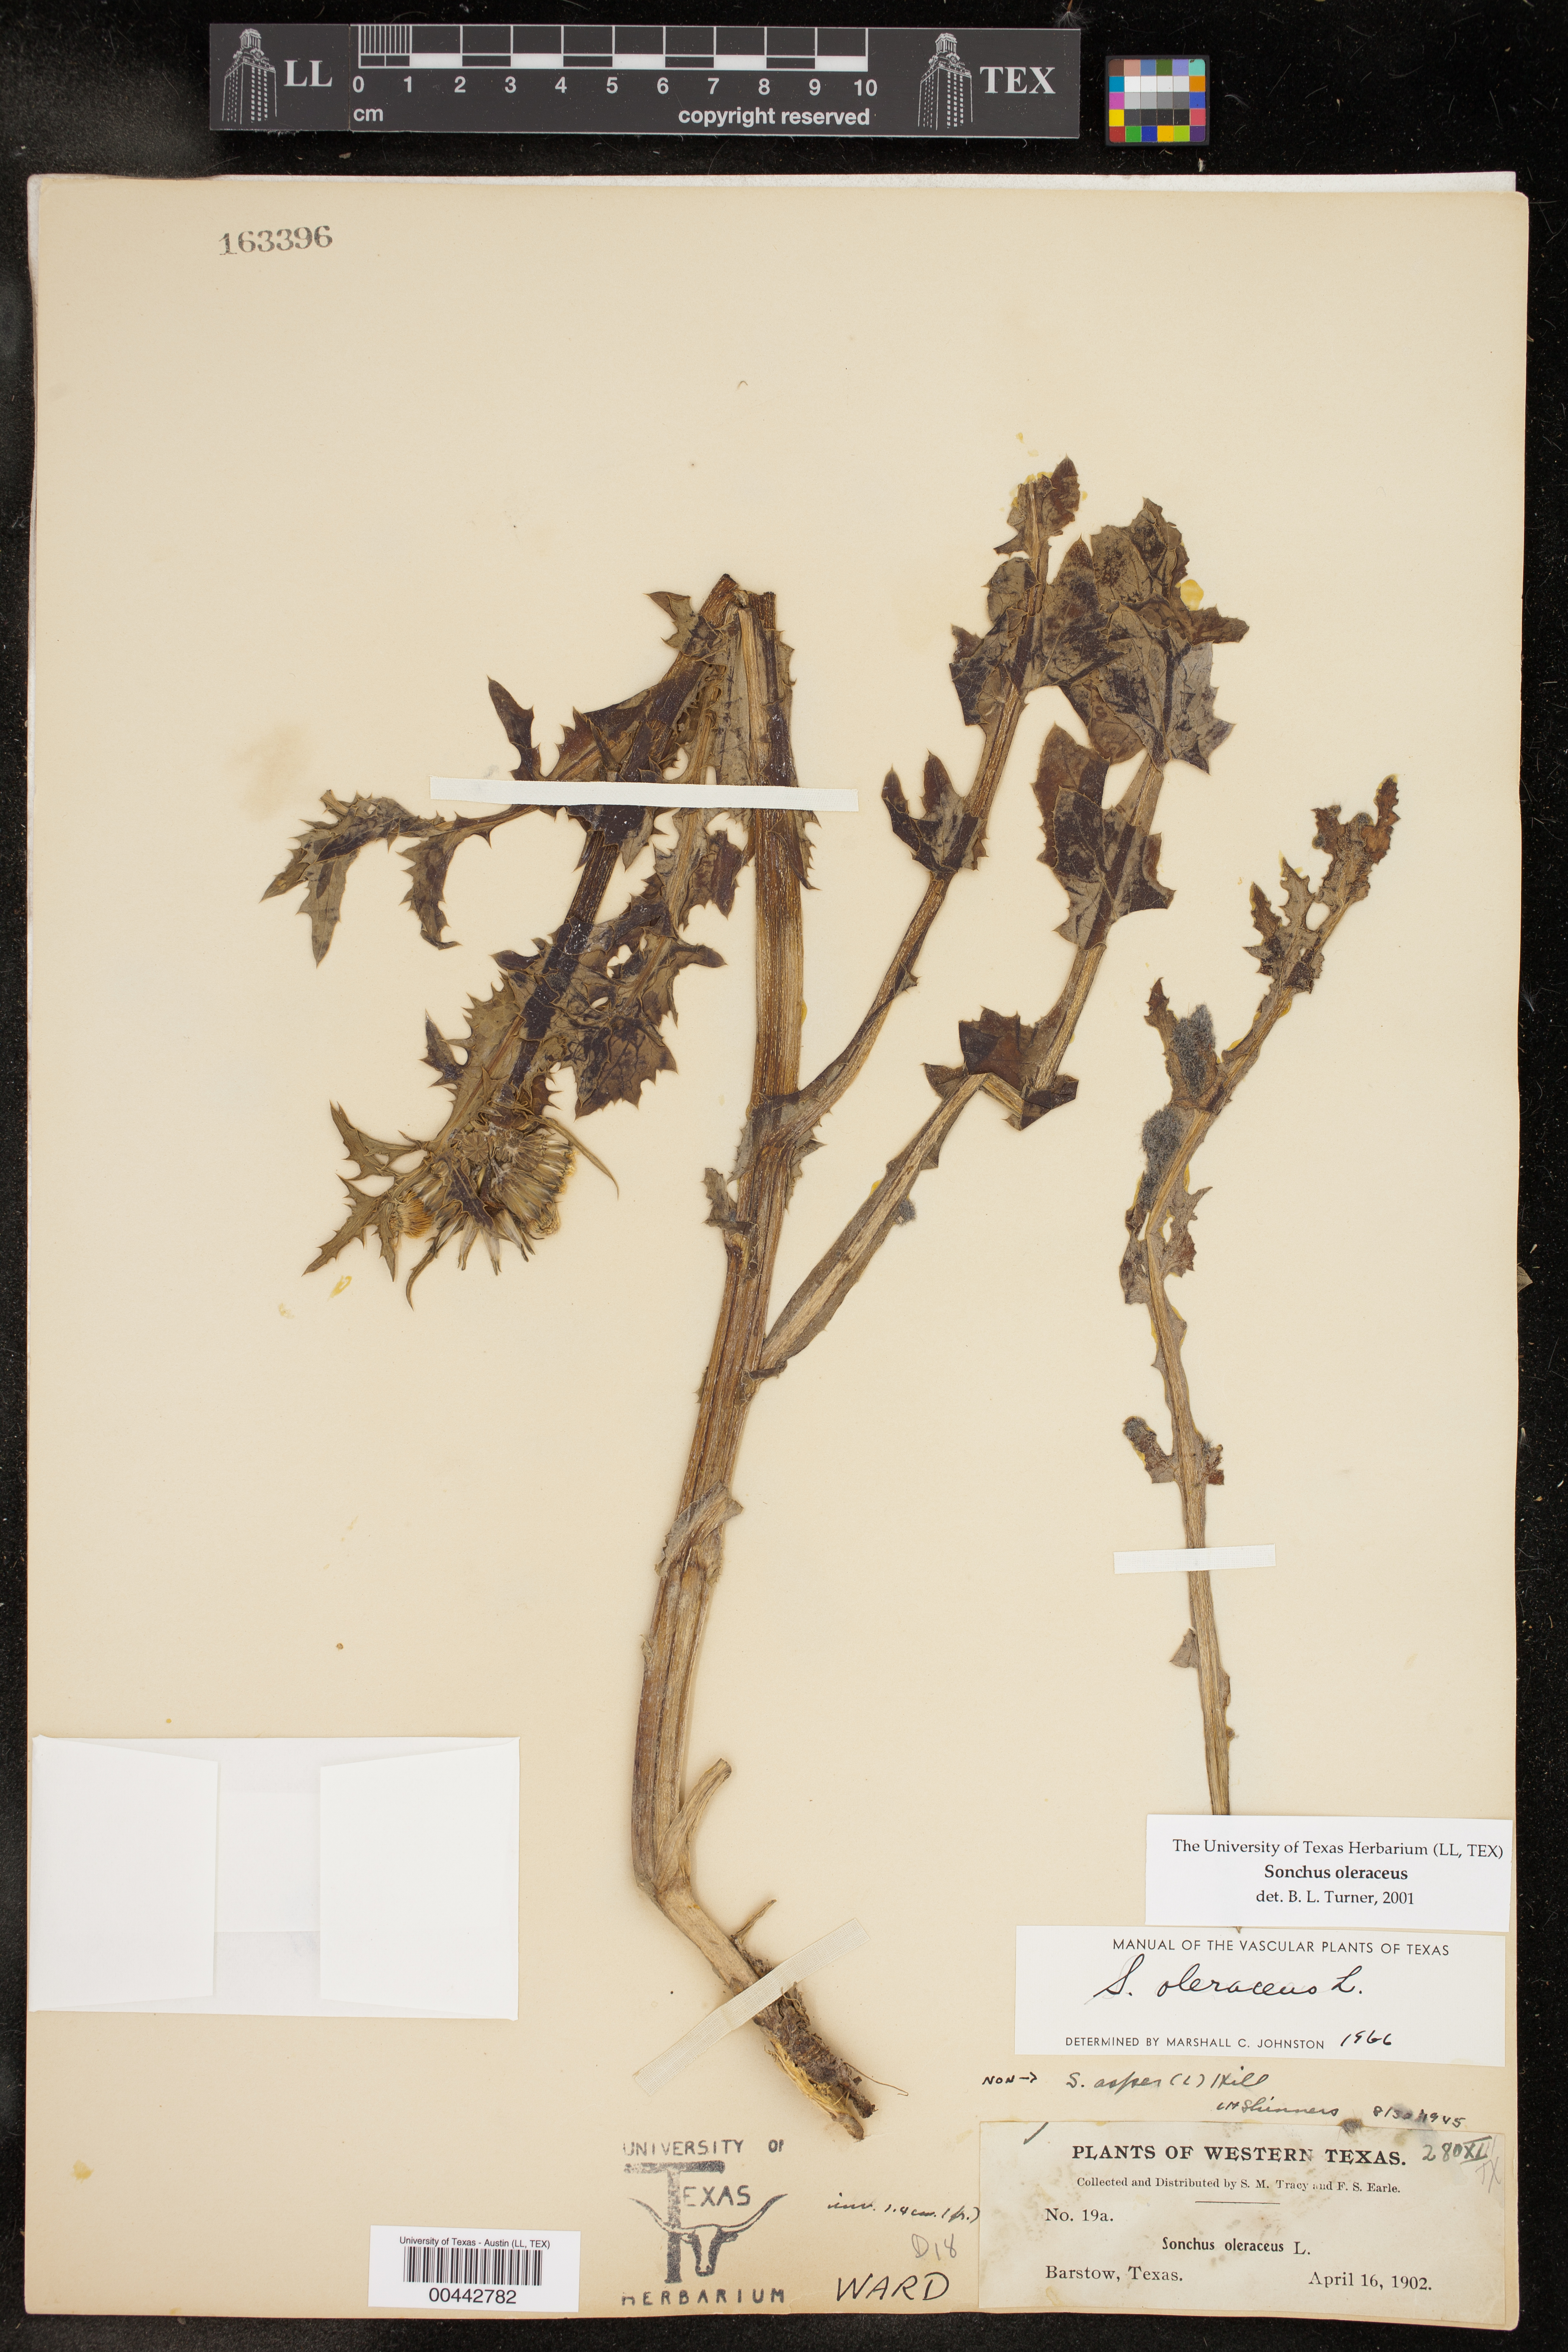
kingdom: Plantae
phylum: Tracheophyta
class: Magnoliopsida
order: Asterales
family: Asteraceae
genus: Sonchus
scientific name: Sonchus oleraceus
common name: Common sowthistle
